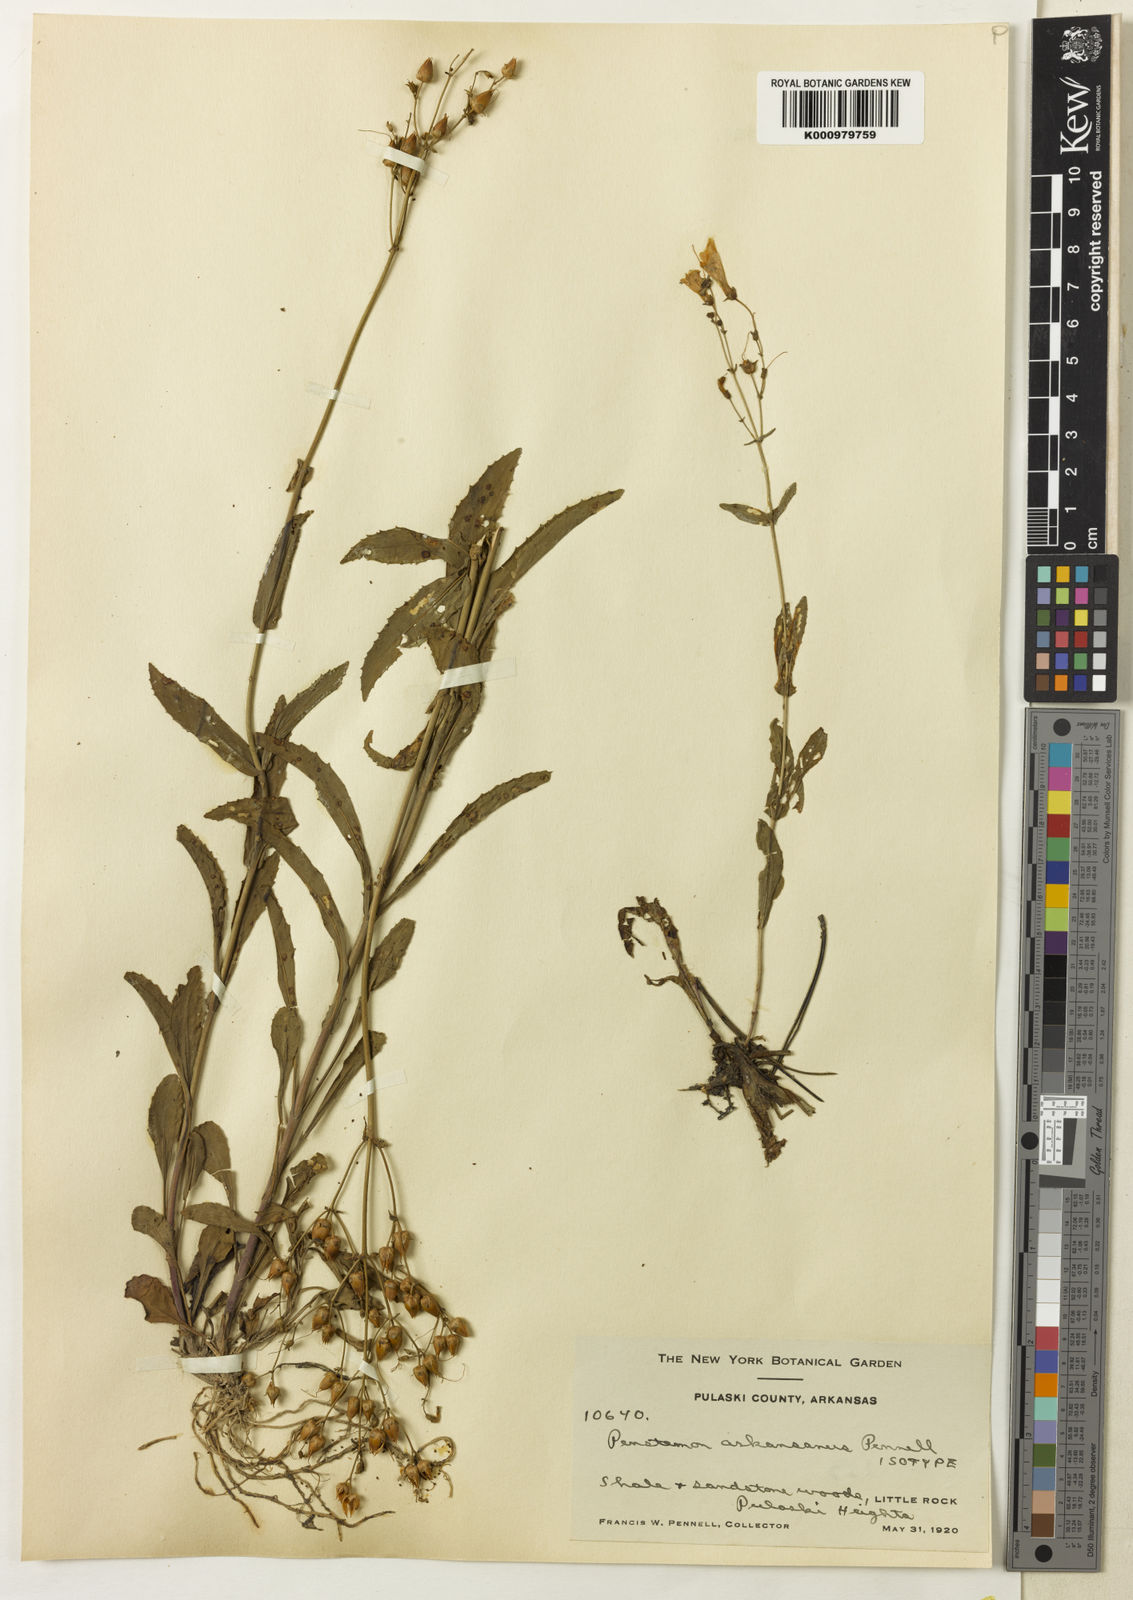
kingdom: Plantae
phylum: Tracheophyta
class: Magnoliopsida
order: Lamiales
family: Plantaginaceae
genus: Penstemon
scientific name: Penstemon arkansanus
